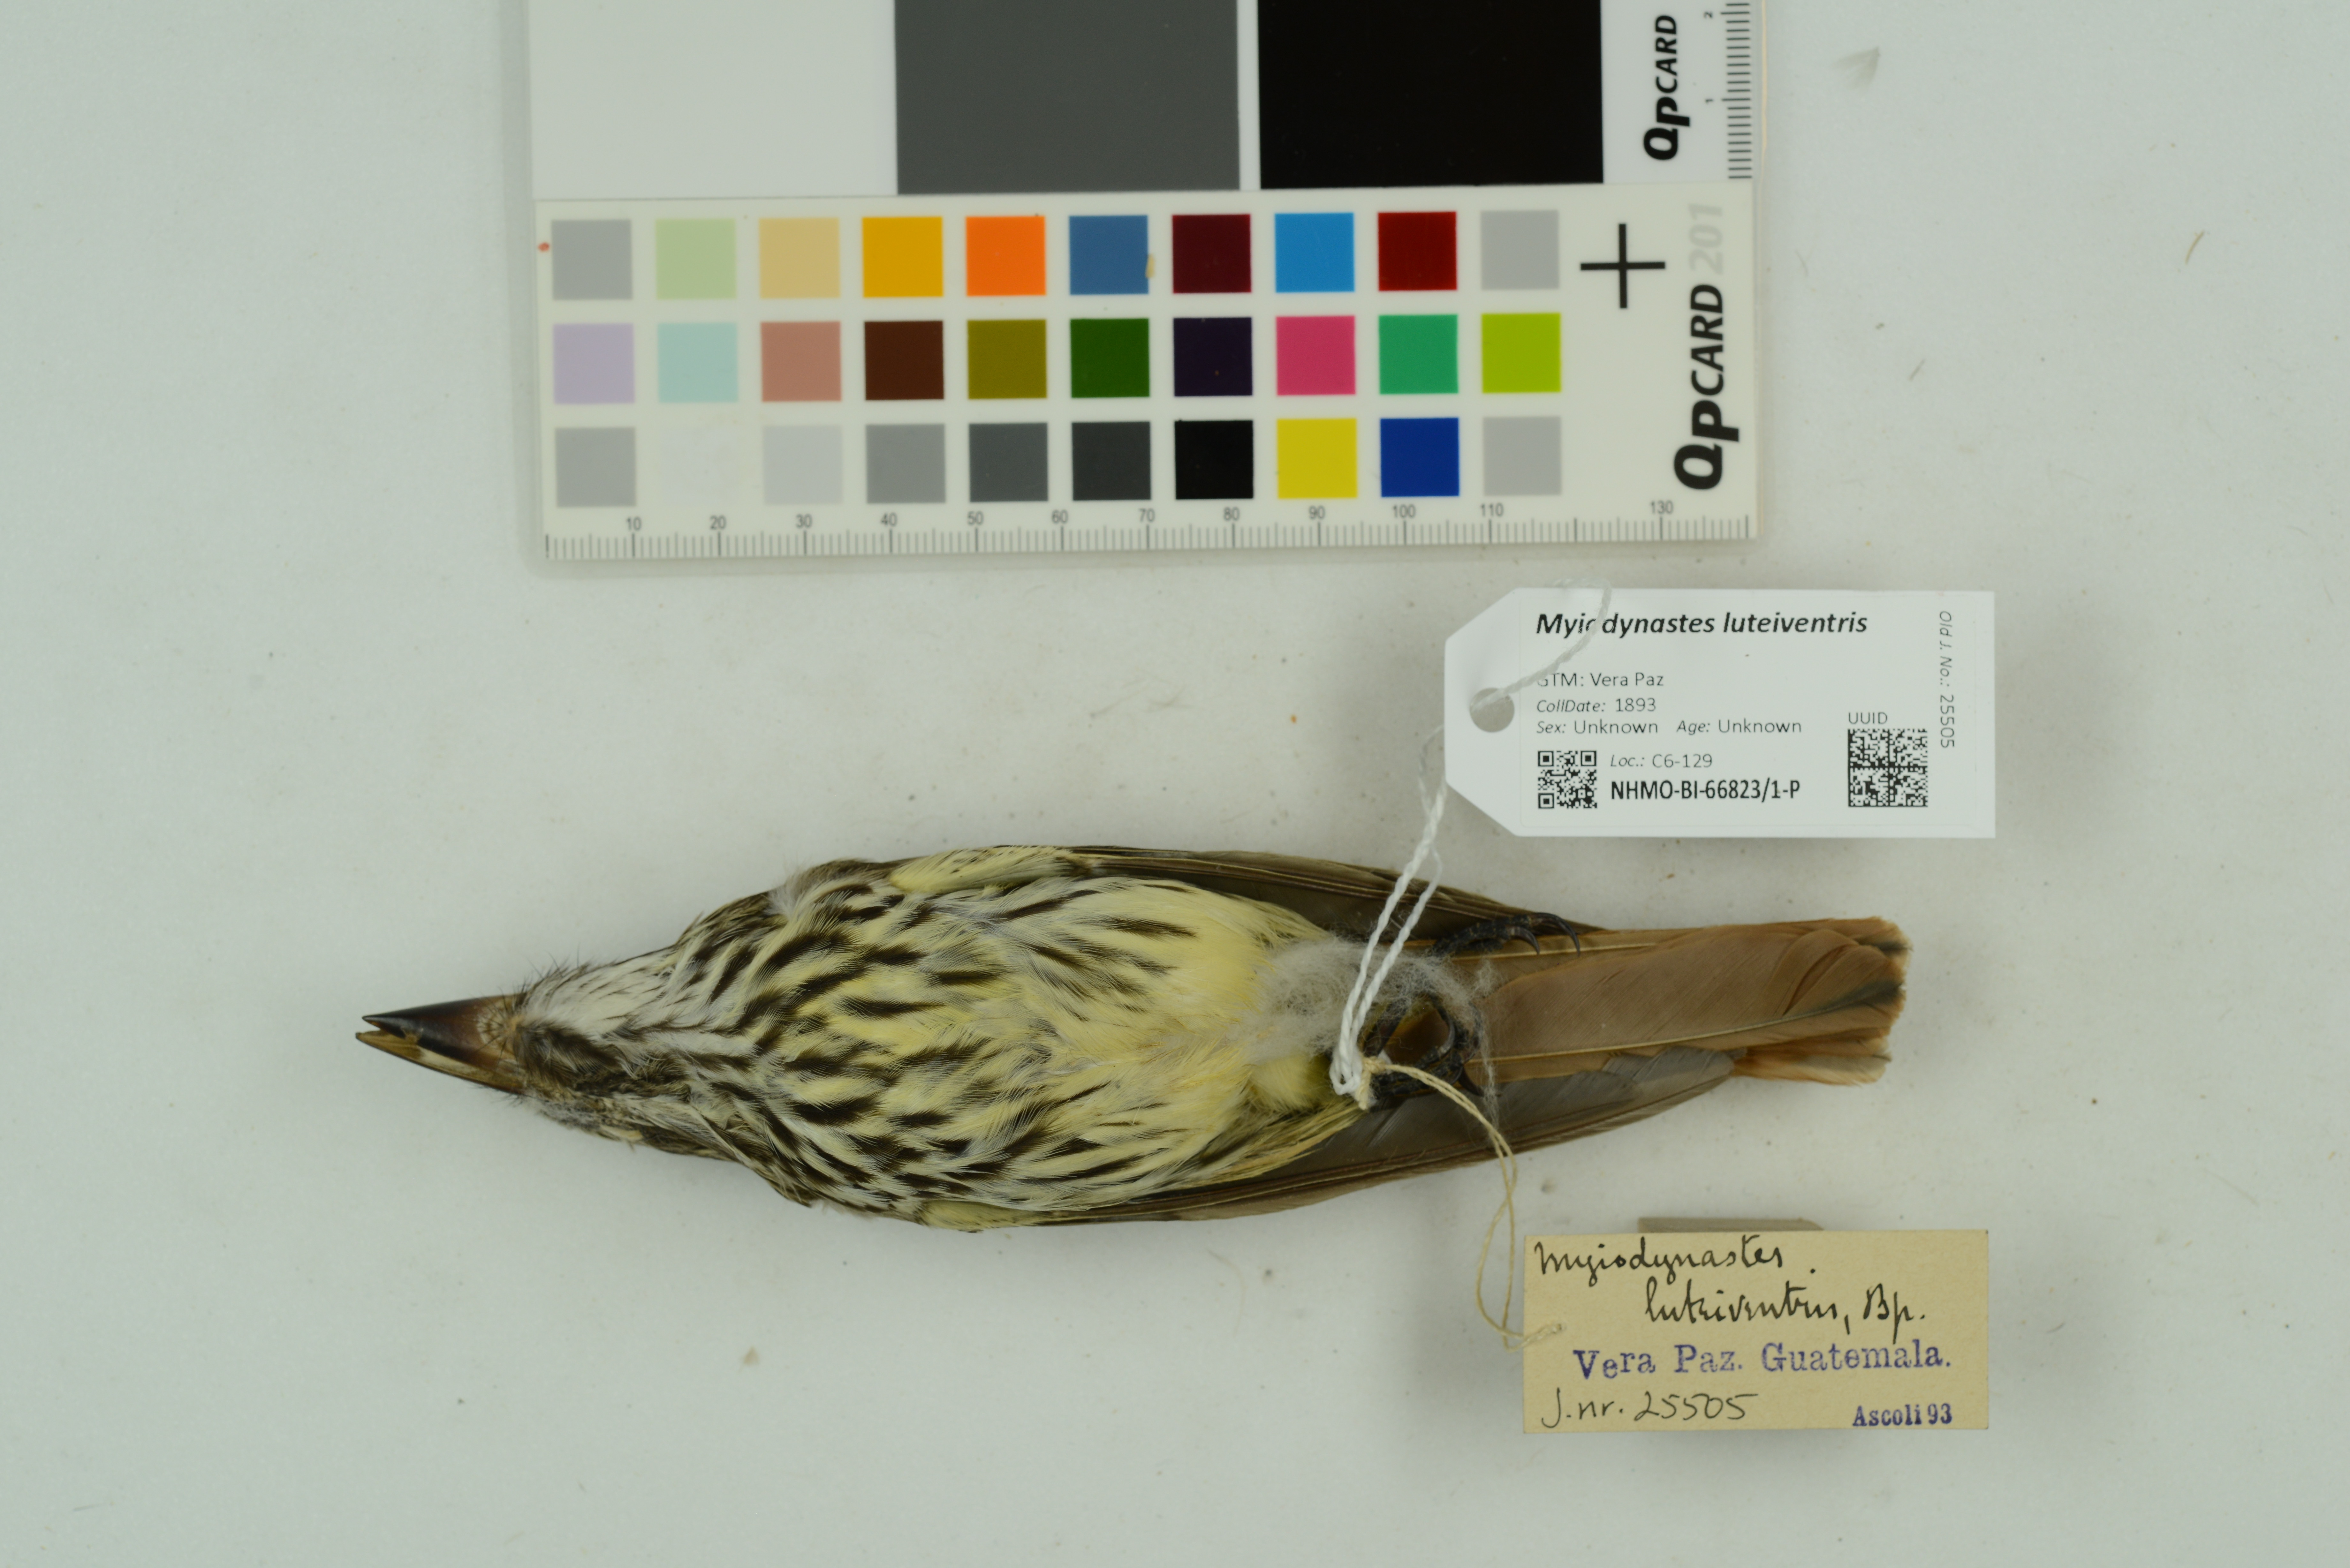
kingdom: Animalia
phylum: Chordata
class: Aves
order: Passeriformes
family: Tyrannidae
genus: Myiodynastes
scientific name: Myiodynastes luteiventris
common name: Sulphur-bellied flycatcher
